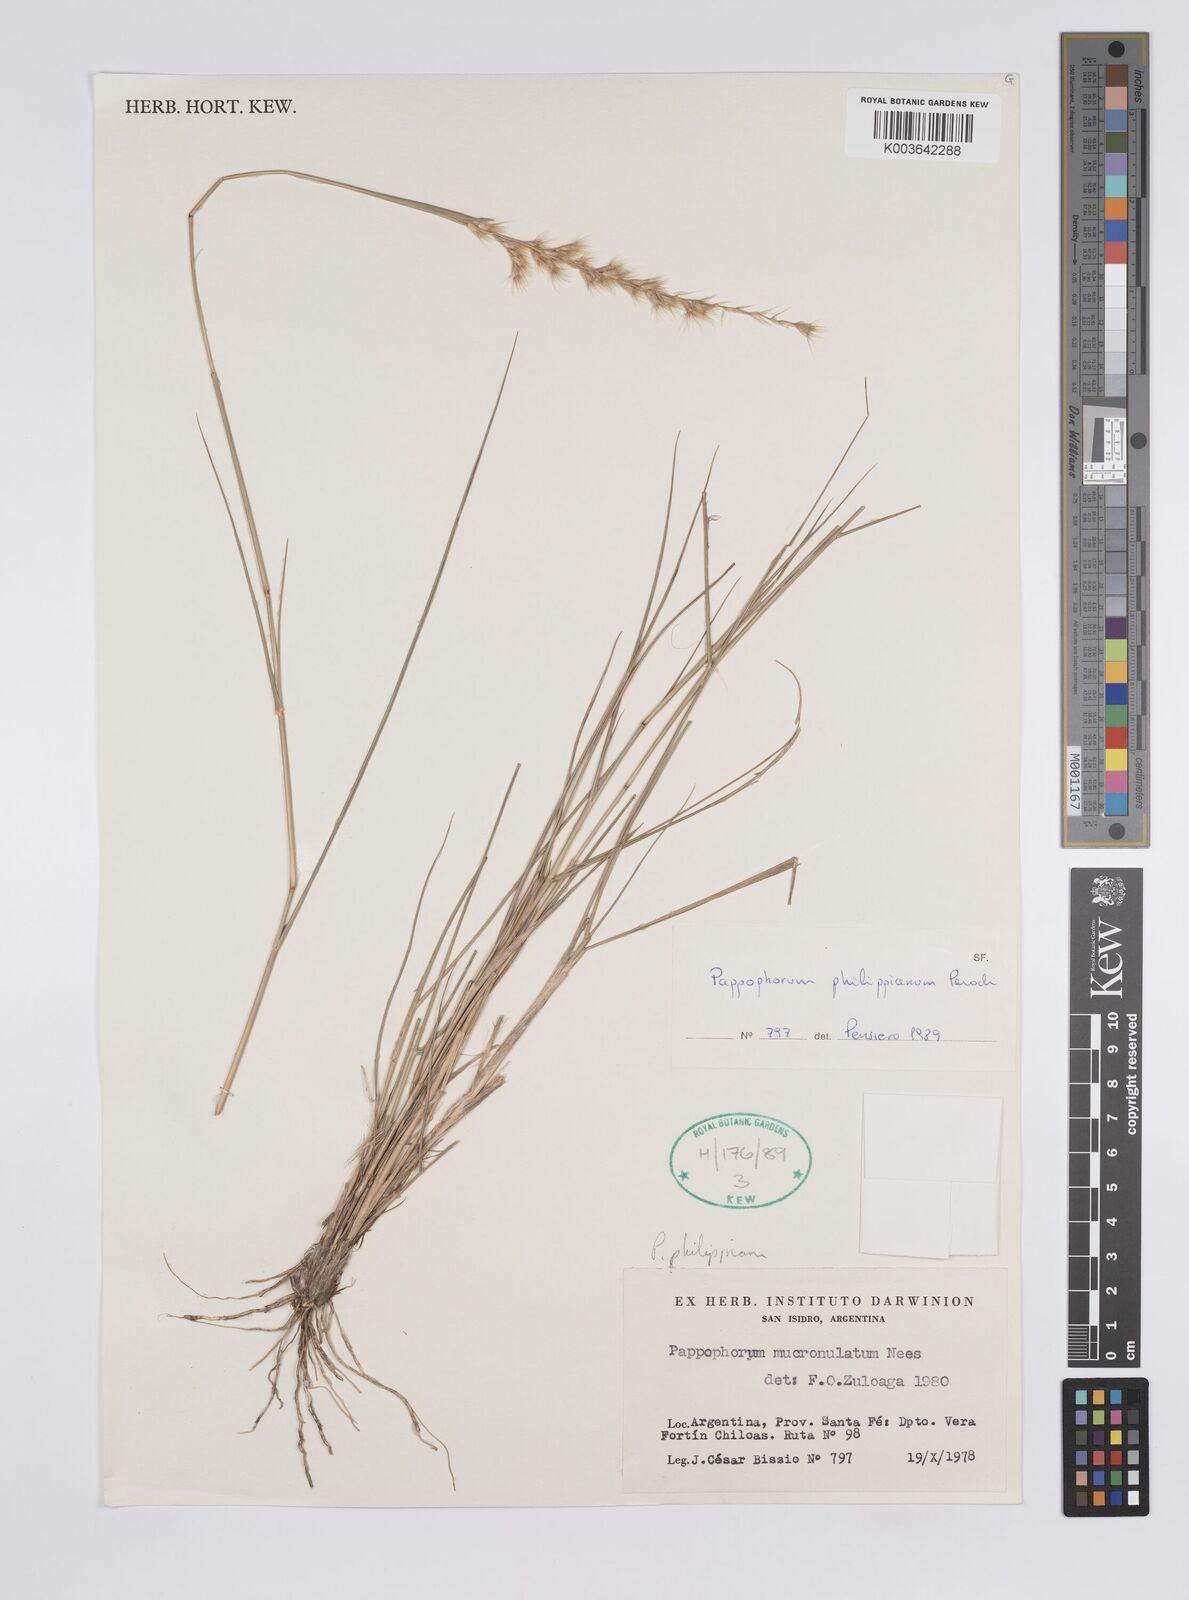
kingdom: Plantae
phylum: Tracheophyta
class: Liliopsida
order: Poales
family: Poaceae
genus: Pappophorum
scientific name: Pappophorum philippianum
